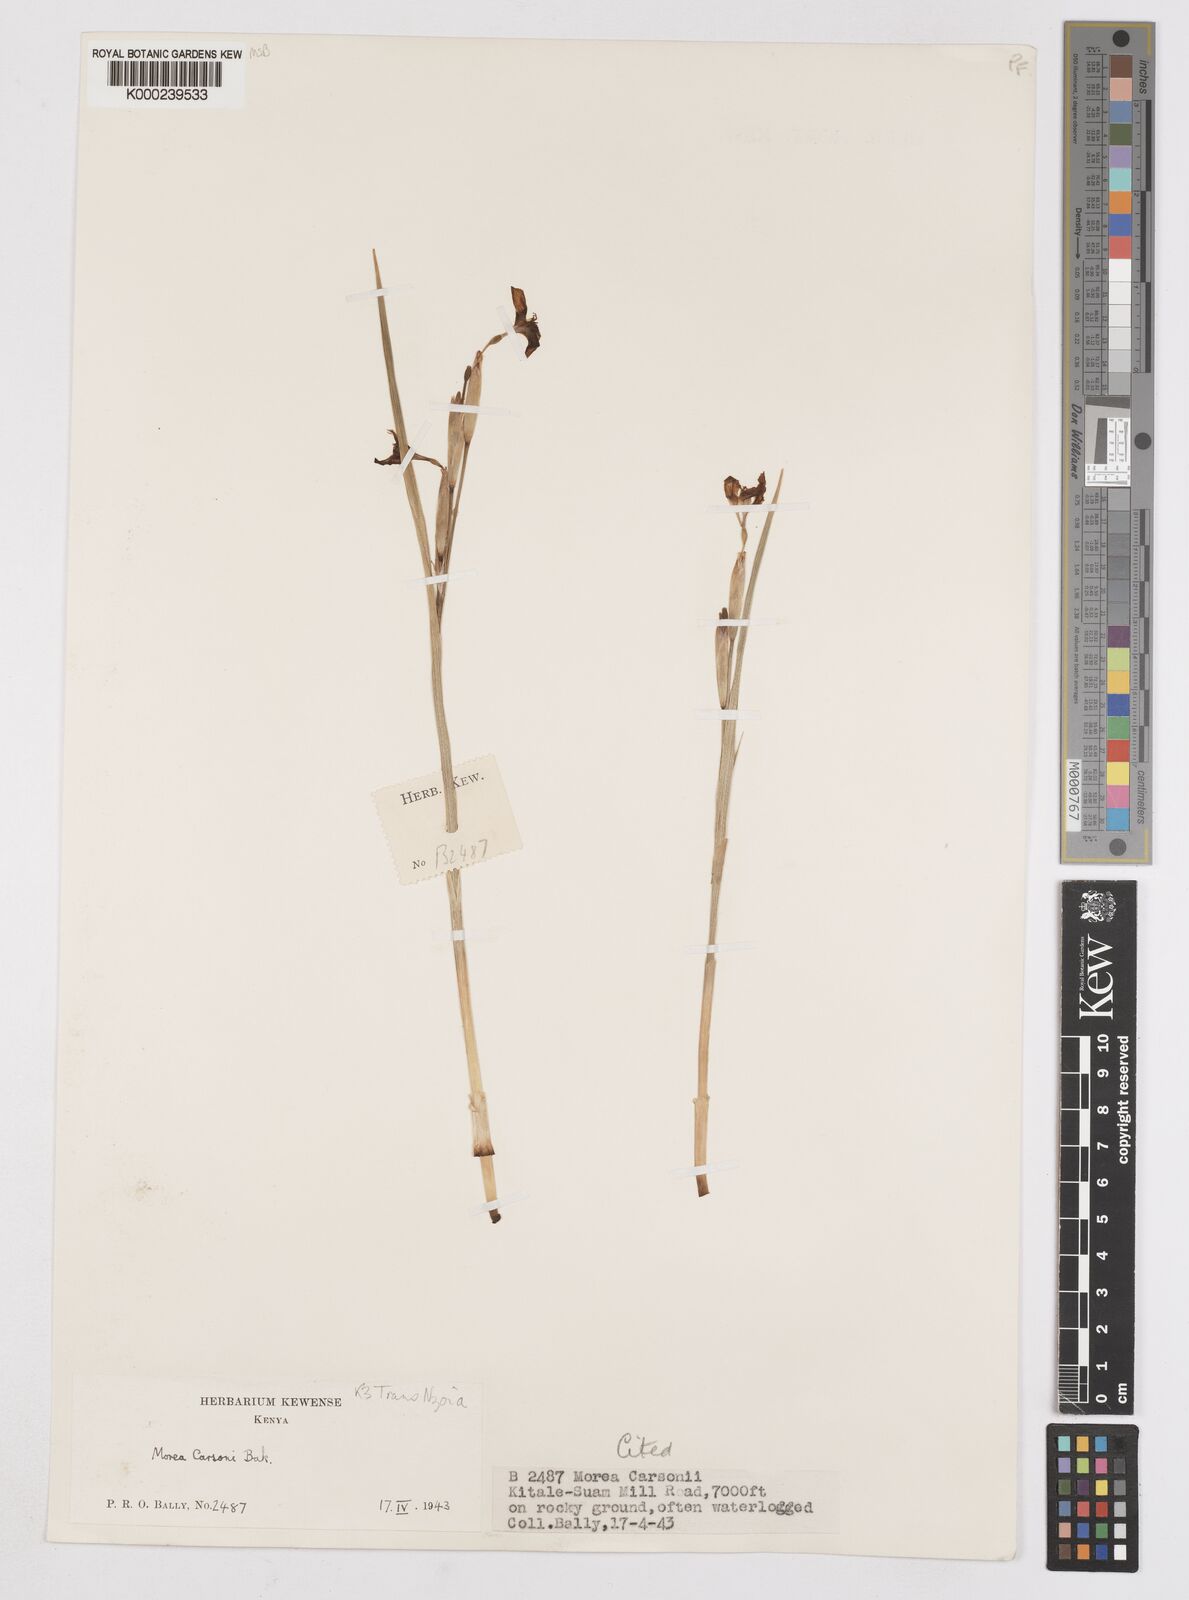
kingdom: Plantae
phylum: Tracheophyta
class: Liliopsida
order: Asparagales
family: Iridaceae
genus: Moraea
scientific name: Moraea
